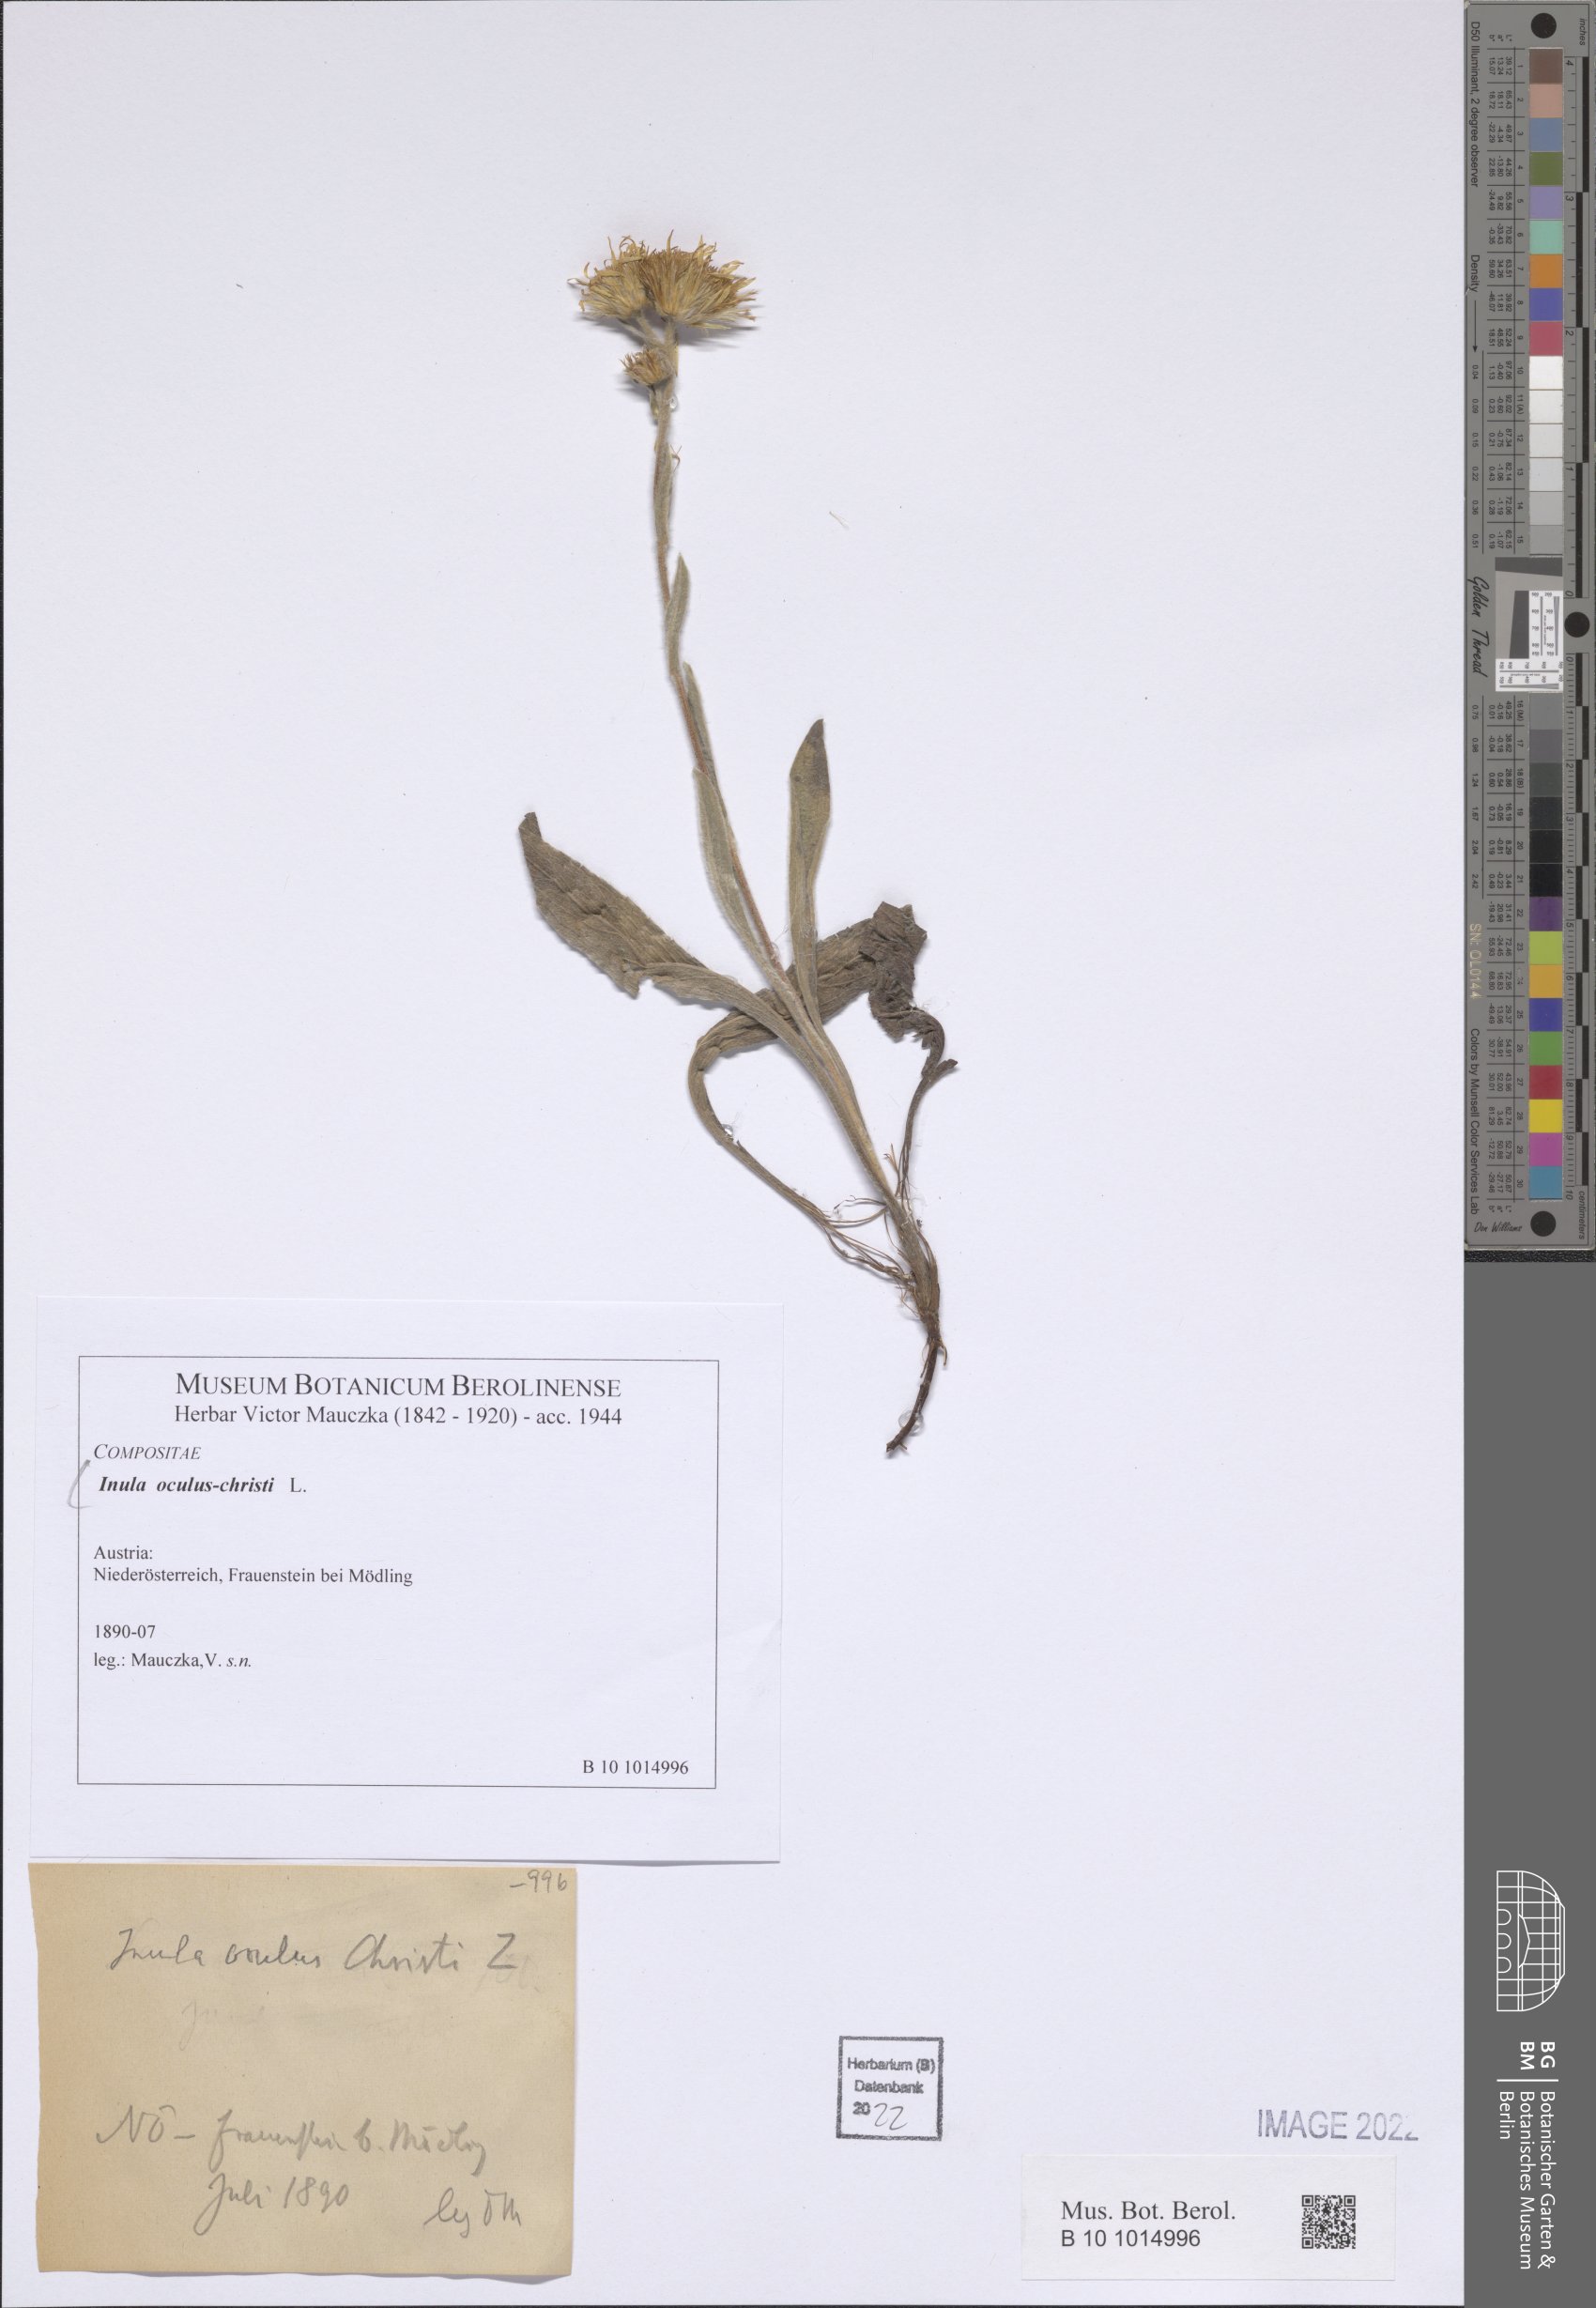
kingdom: Plantae
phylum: Tracheophyta
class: Magnoliopsida
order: Asterales
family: Asteraceae
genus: Pentanema
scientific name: Pentanema oculus-christi
